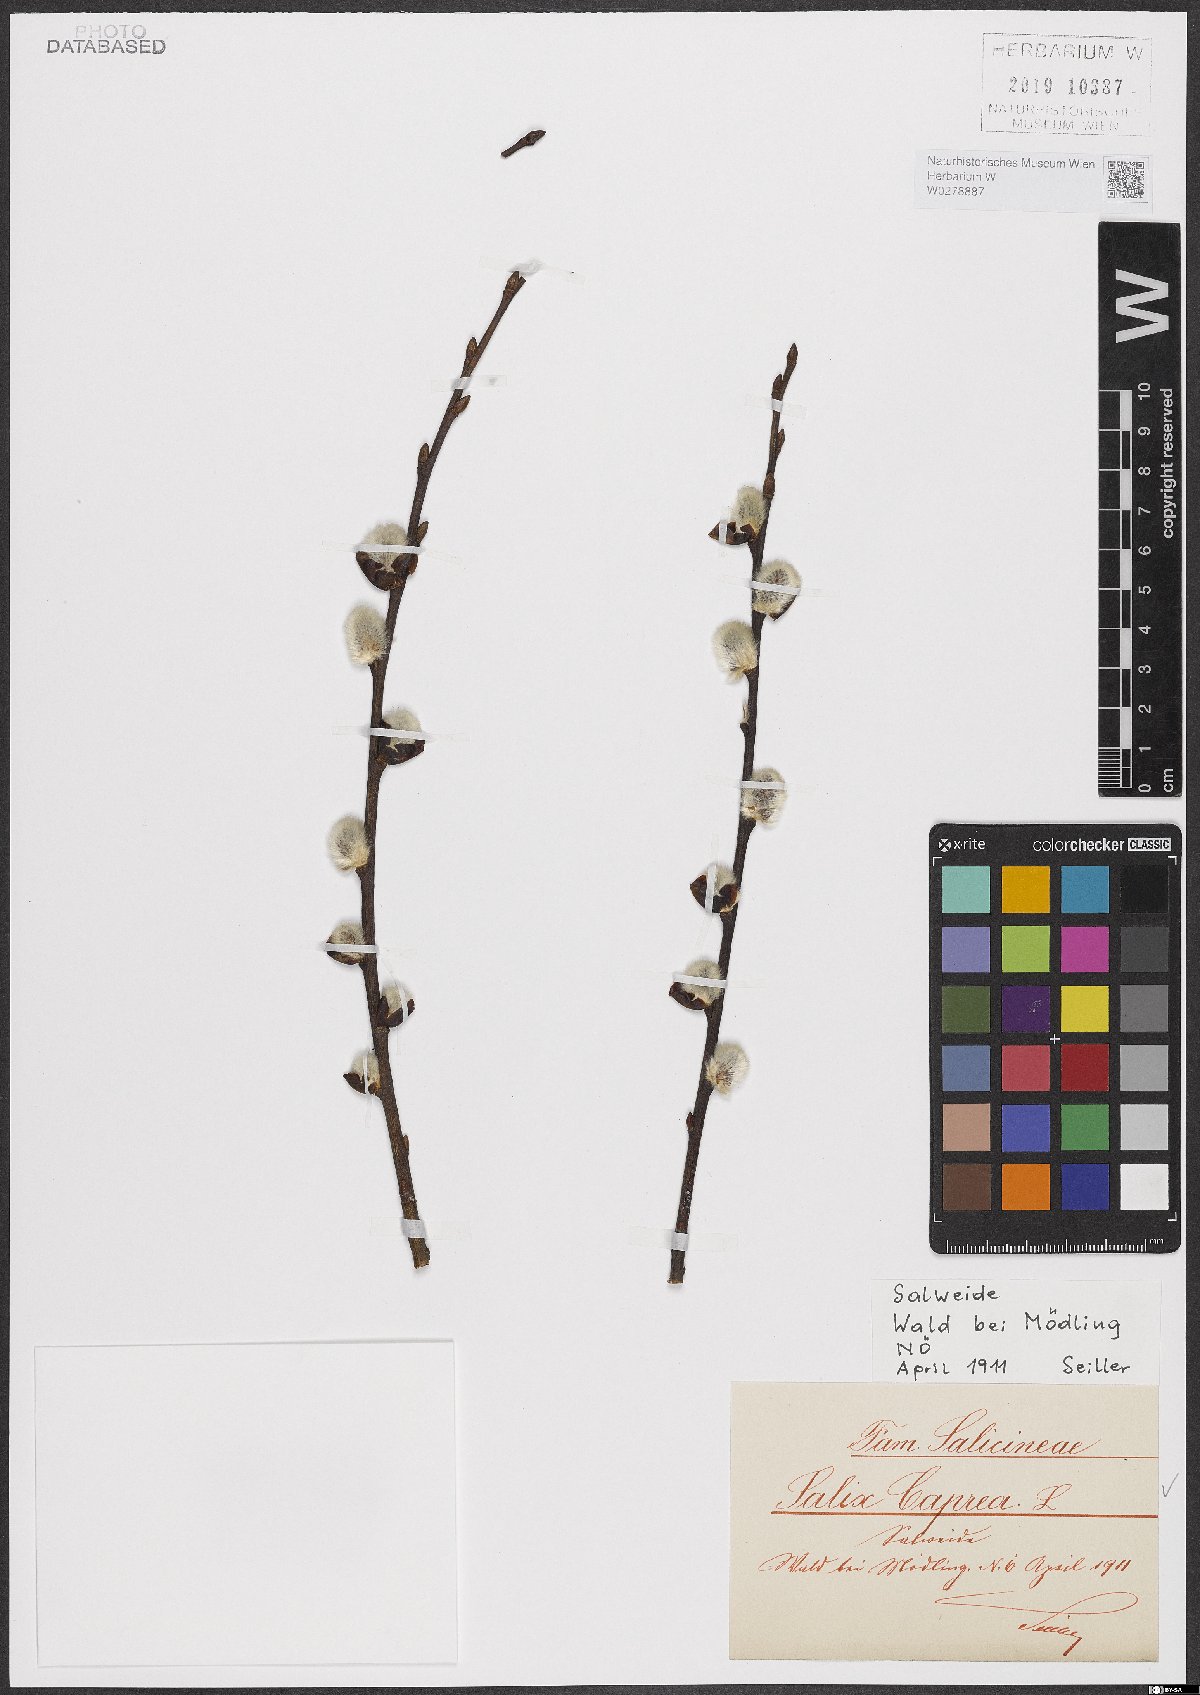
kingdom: Plantae
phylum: Tracheophyta
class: Magnoliopsida
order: Malpighiales
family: Salicaceae
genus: Salix
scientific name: Salix caprea
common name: Goat willow
